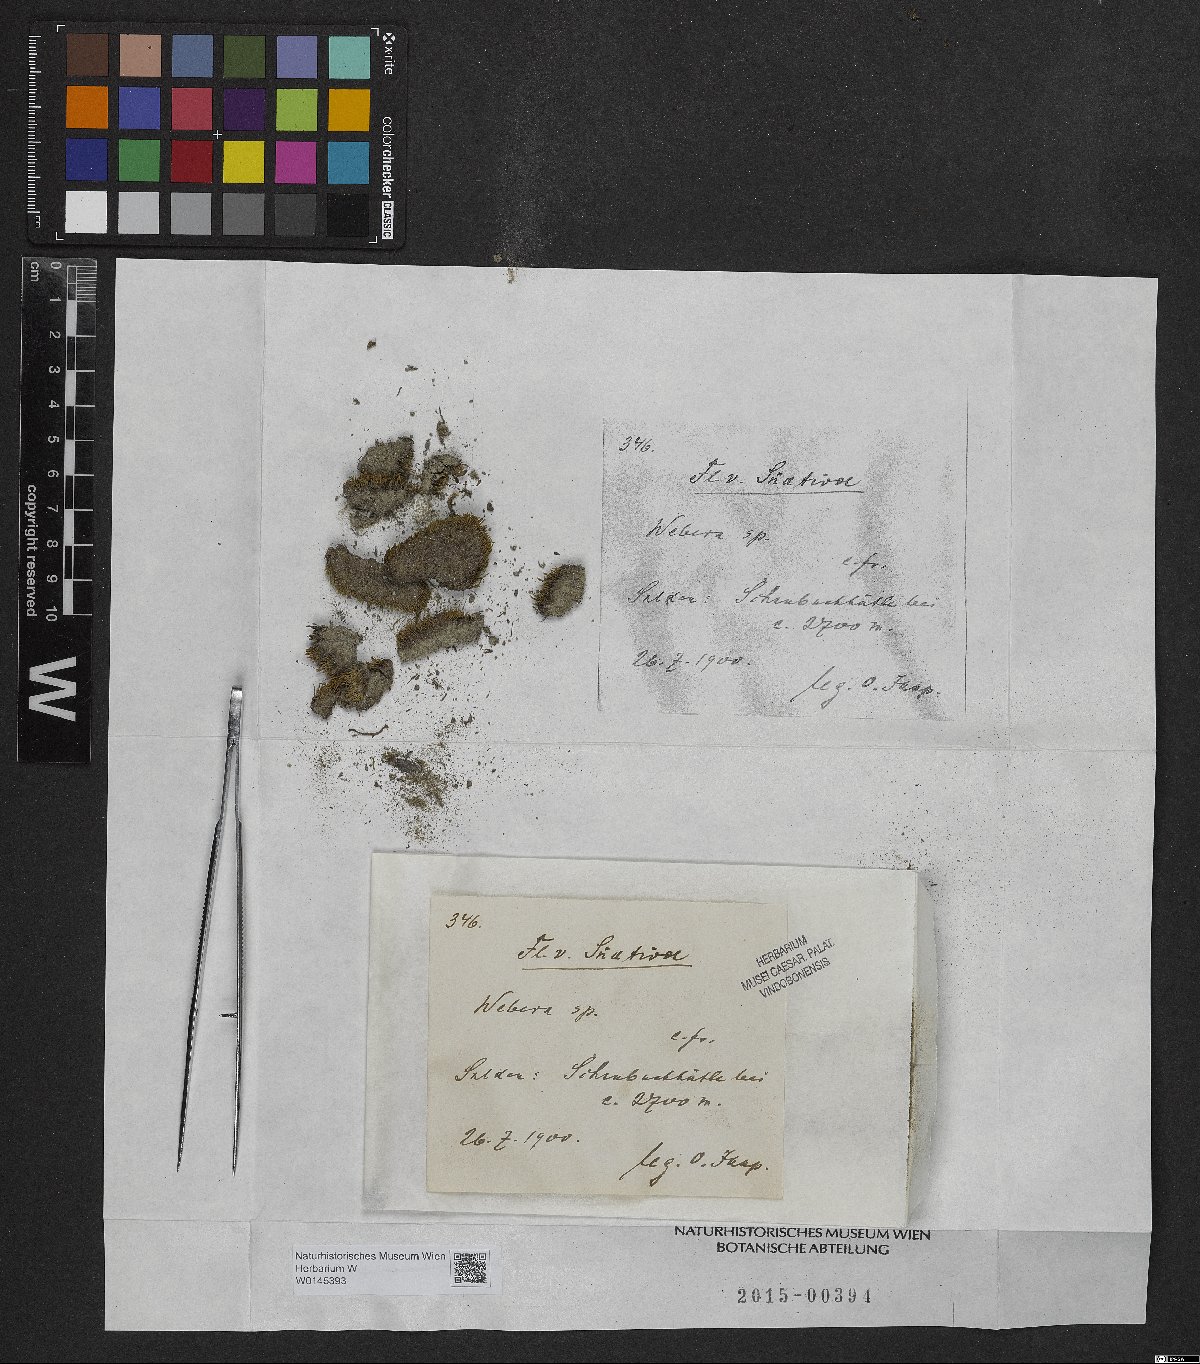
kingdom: Plantae
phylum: Tracheophyta
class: Magnoliopsida
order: Gentianales
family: Rubiaceae
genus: Webera
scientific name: Webera
